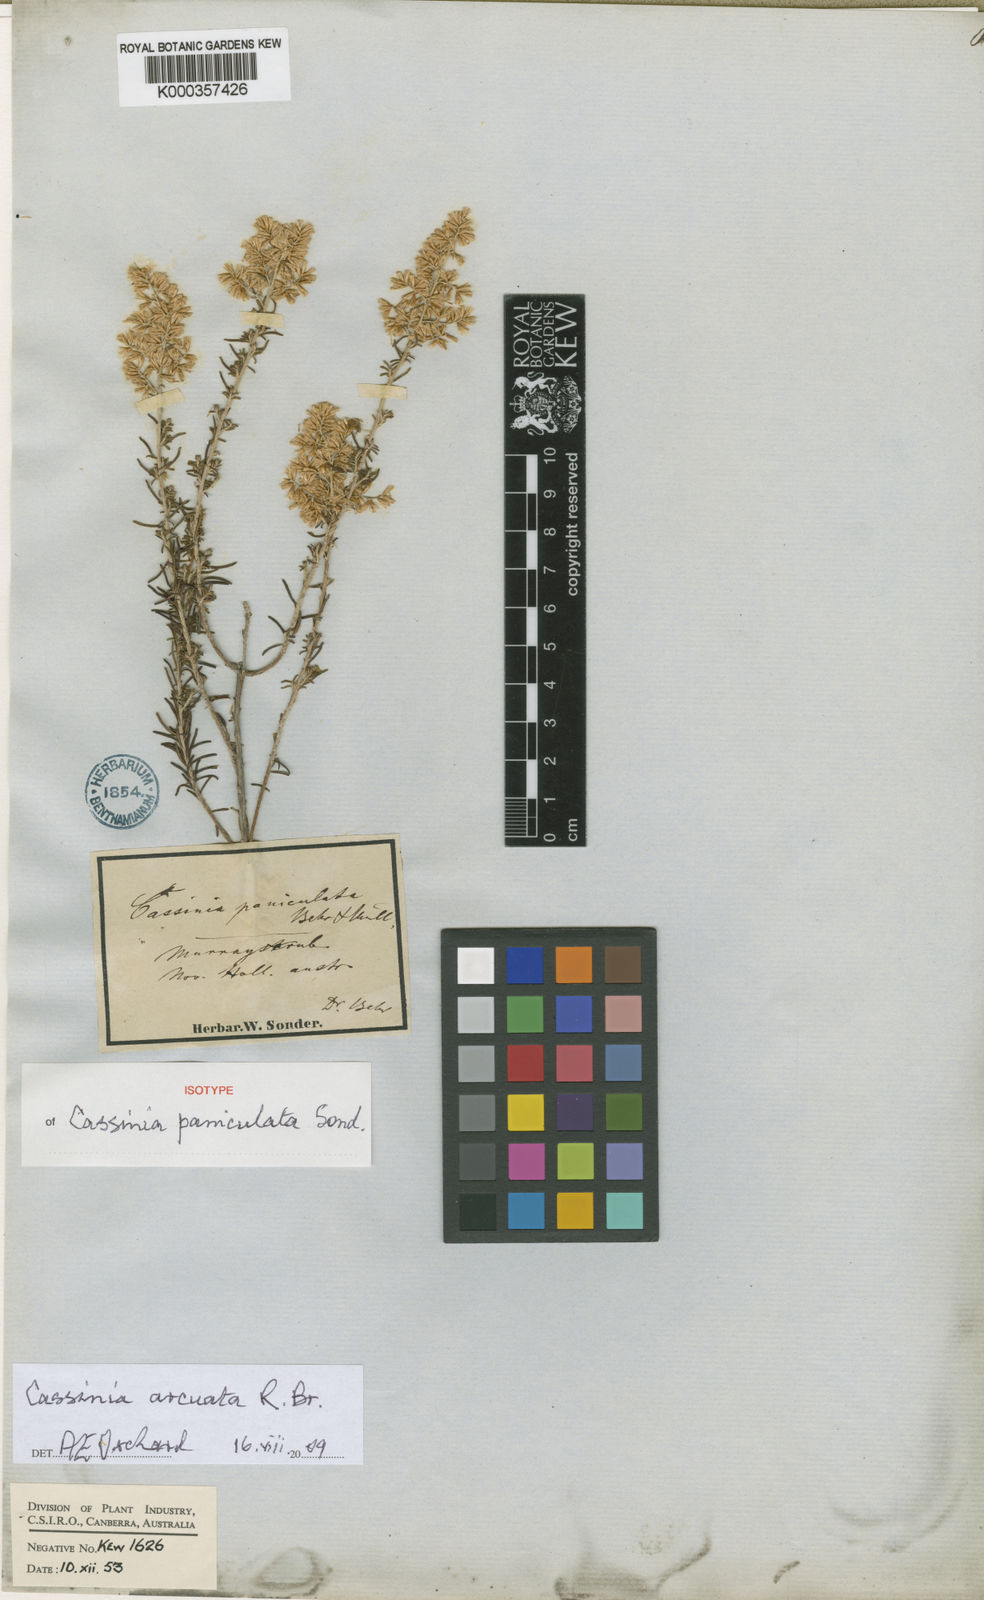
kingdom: Plantae
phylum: Tracheophyta
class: Magnoliopsida
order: Asterales
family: Asteraceae
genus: Cassinia
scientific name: Cassinia arcuata
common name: Chineseshrub
